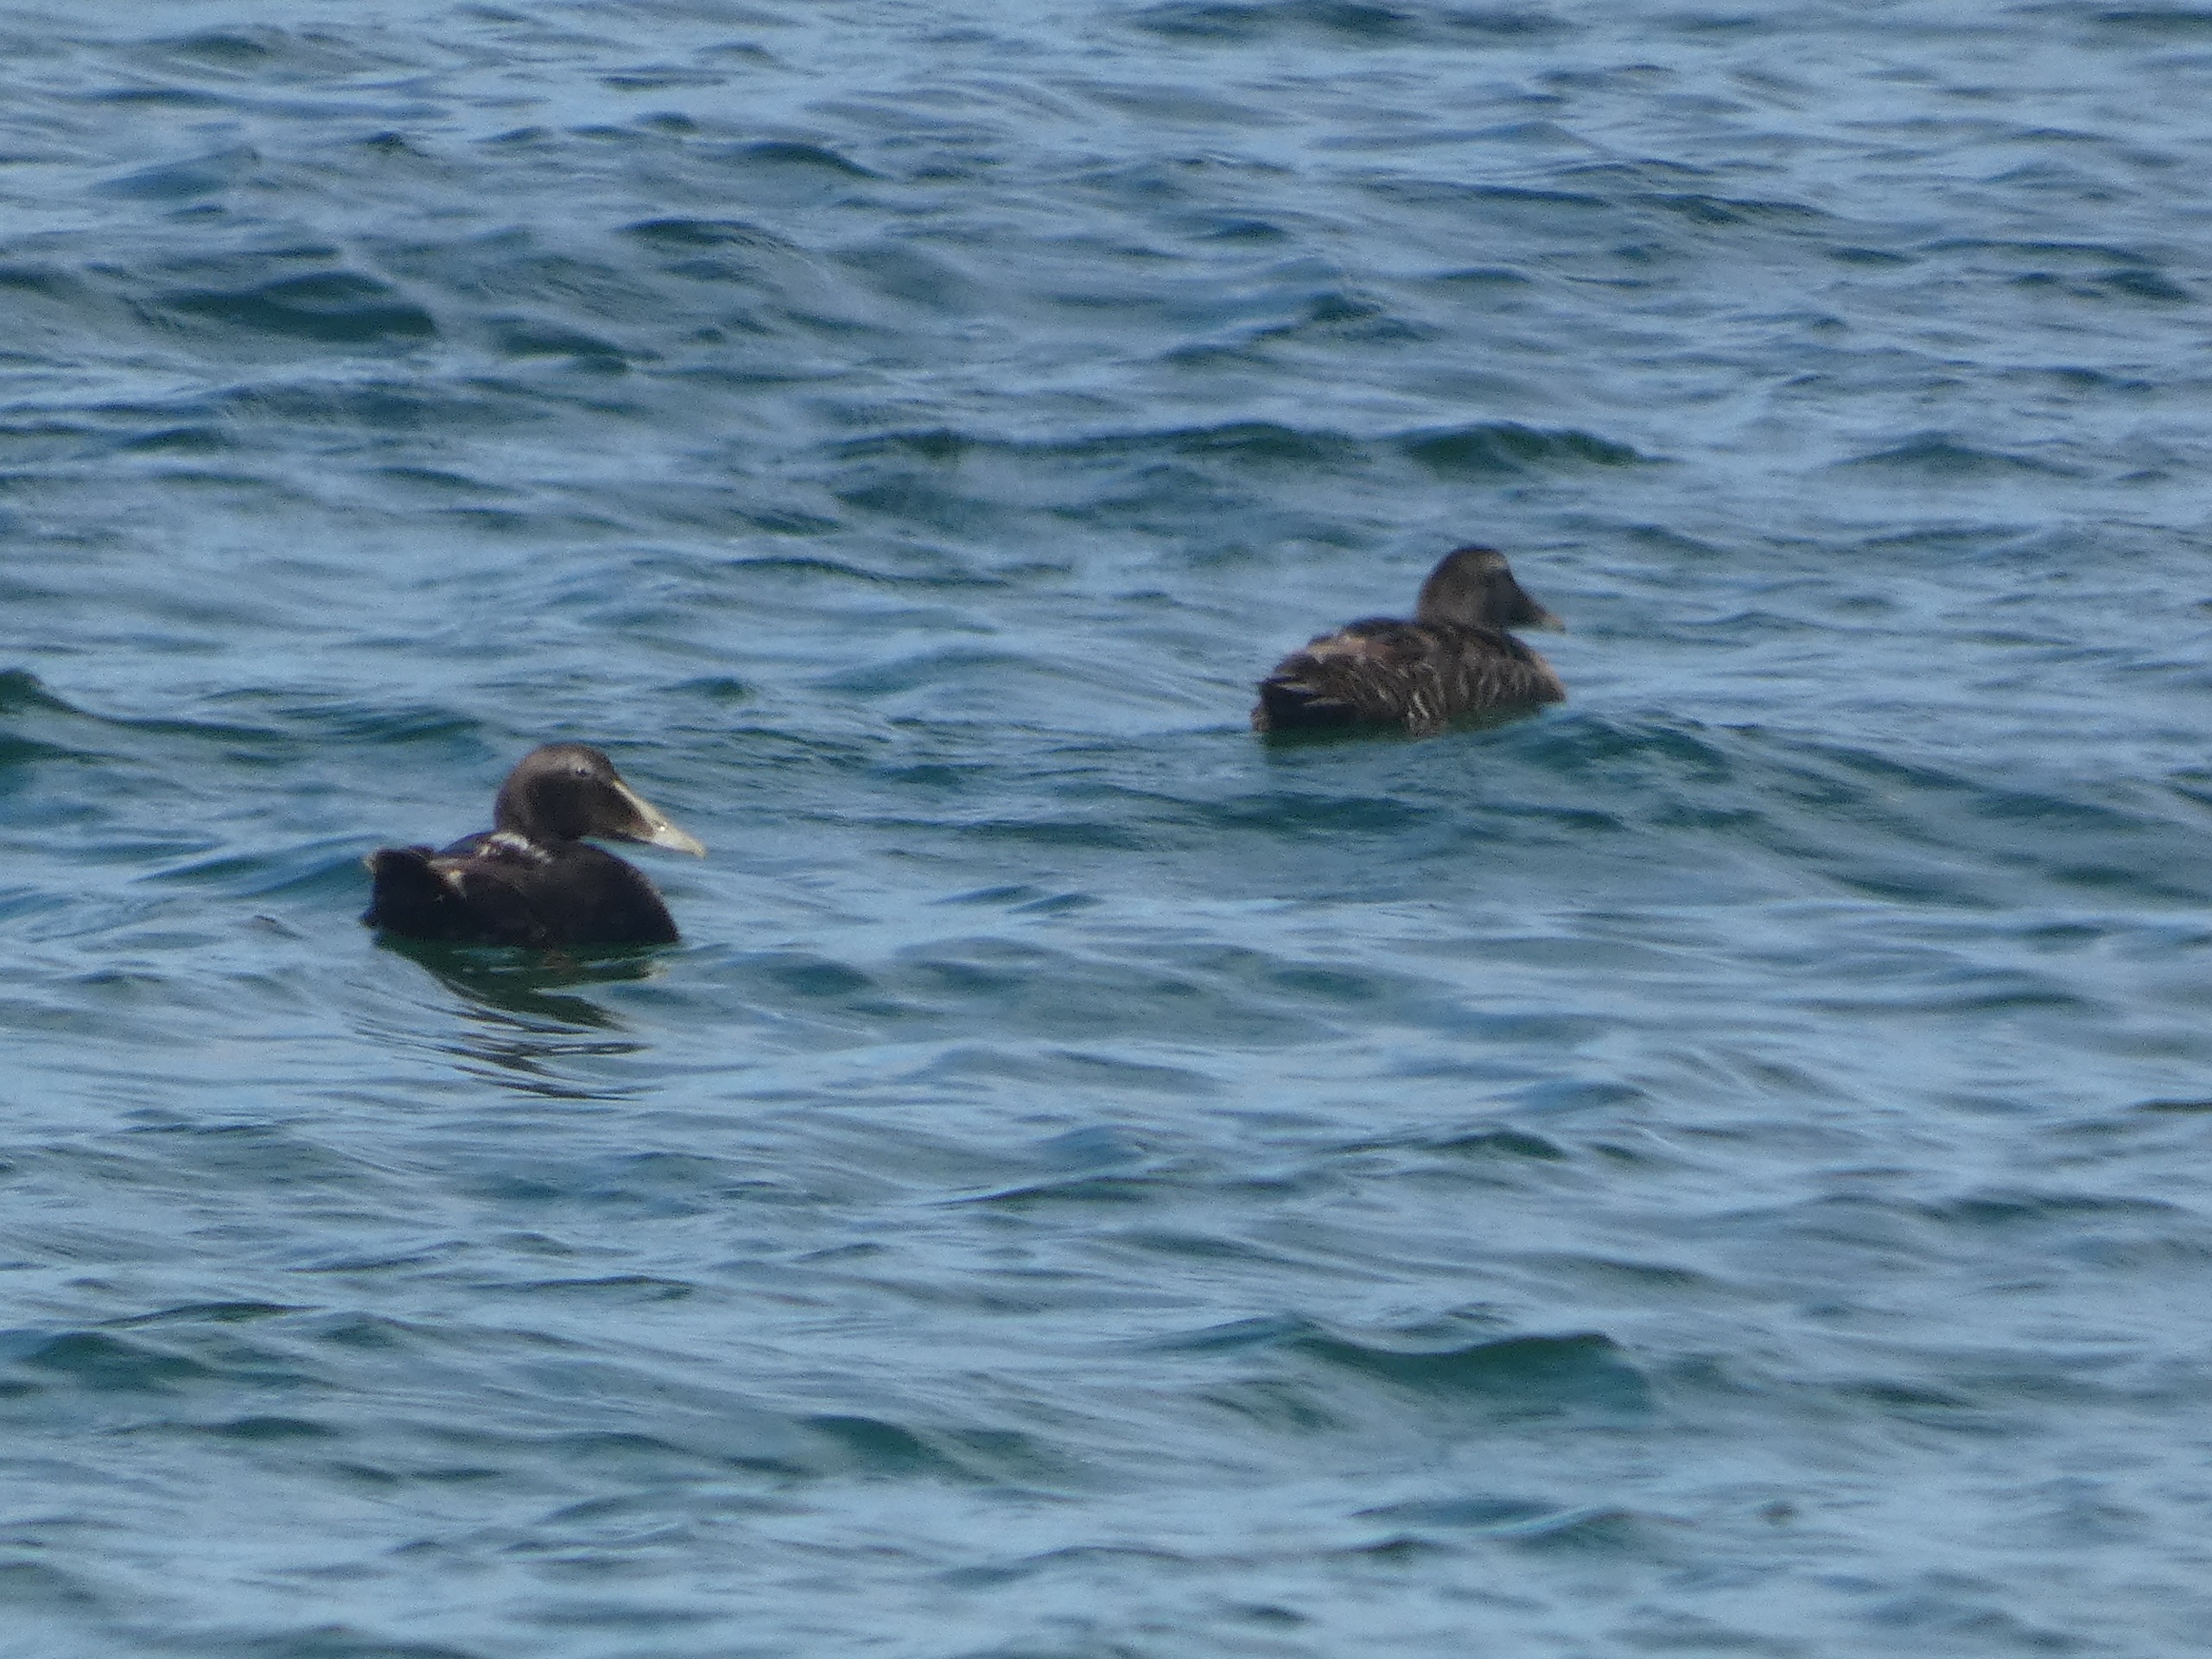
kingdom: Animalia
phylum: Chordata
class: Aves
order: Anseriformes
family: Anatidae
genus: Somateria
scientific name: Somateria mollissima
